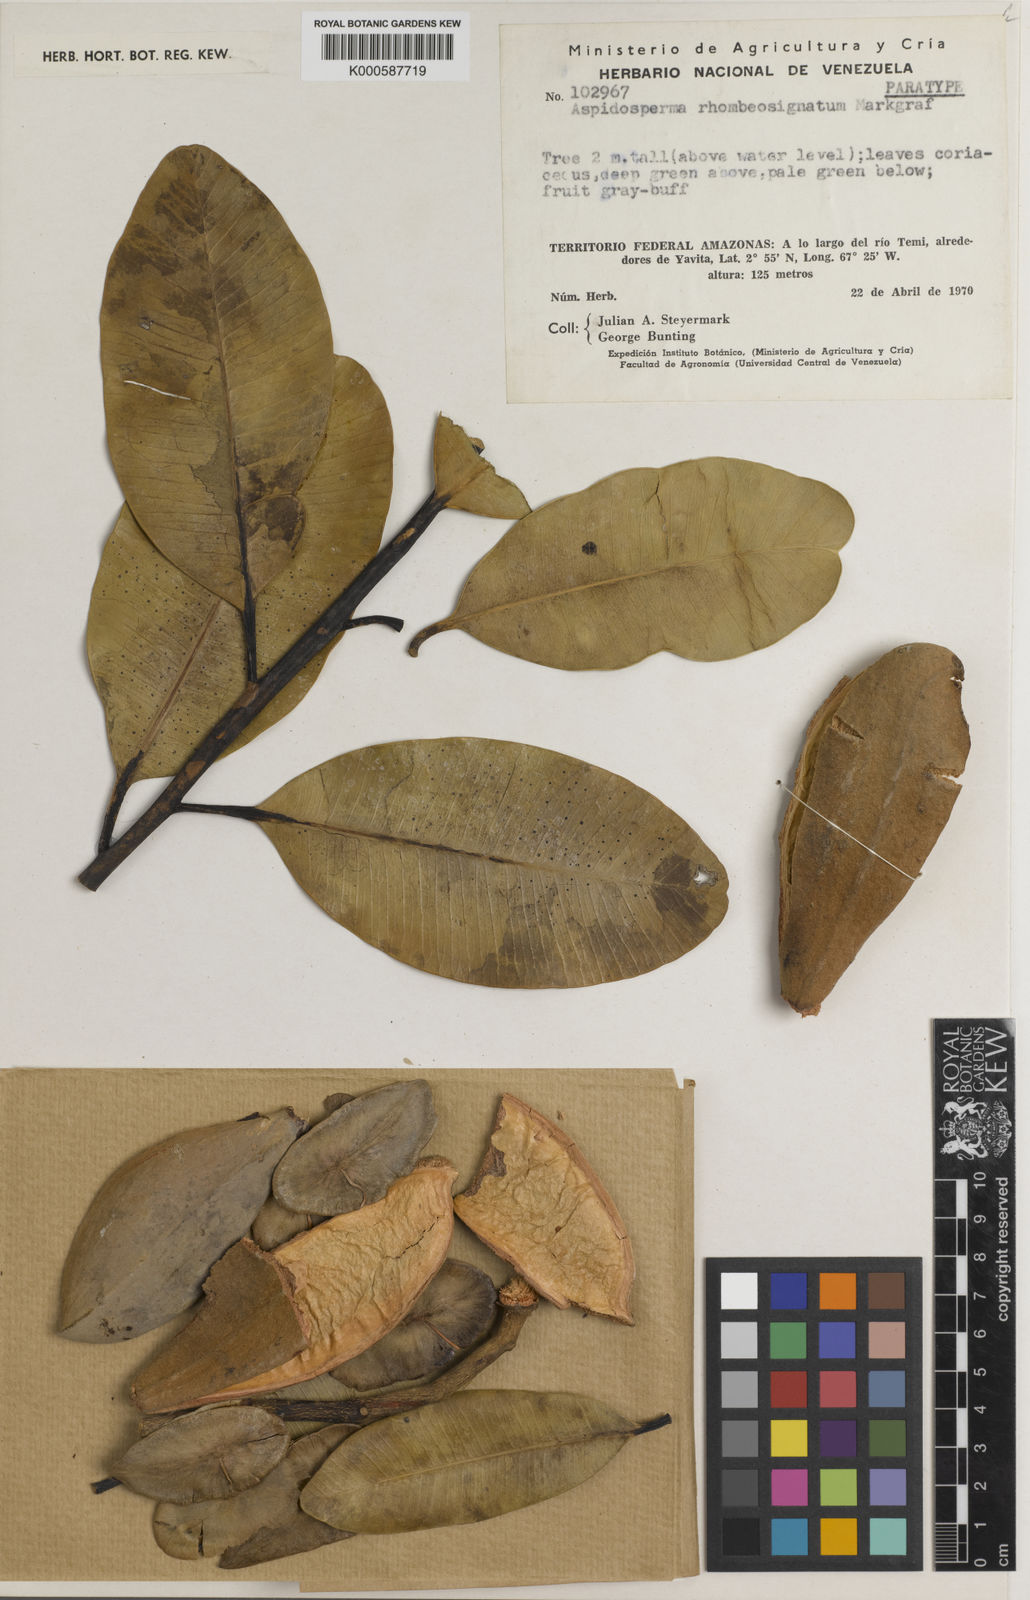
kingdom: Plantae
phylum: Tracheophyta
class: Magnoliopsida
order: Gentianales
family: Apocynaceae
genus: Aspidosperma
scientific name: Aspidosperma pachypterum
